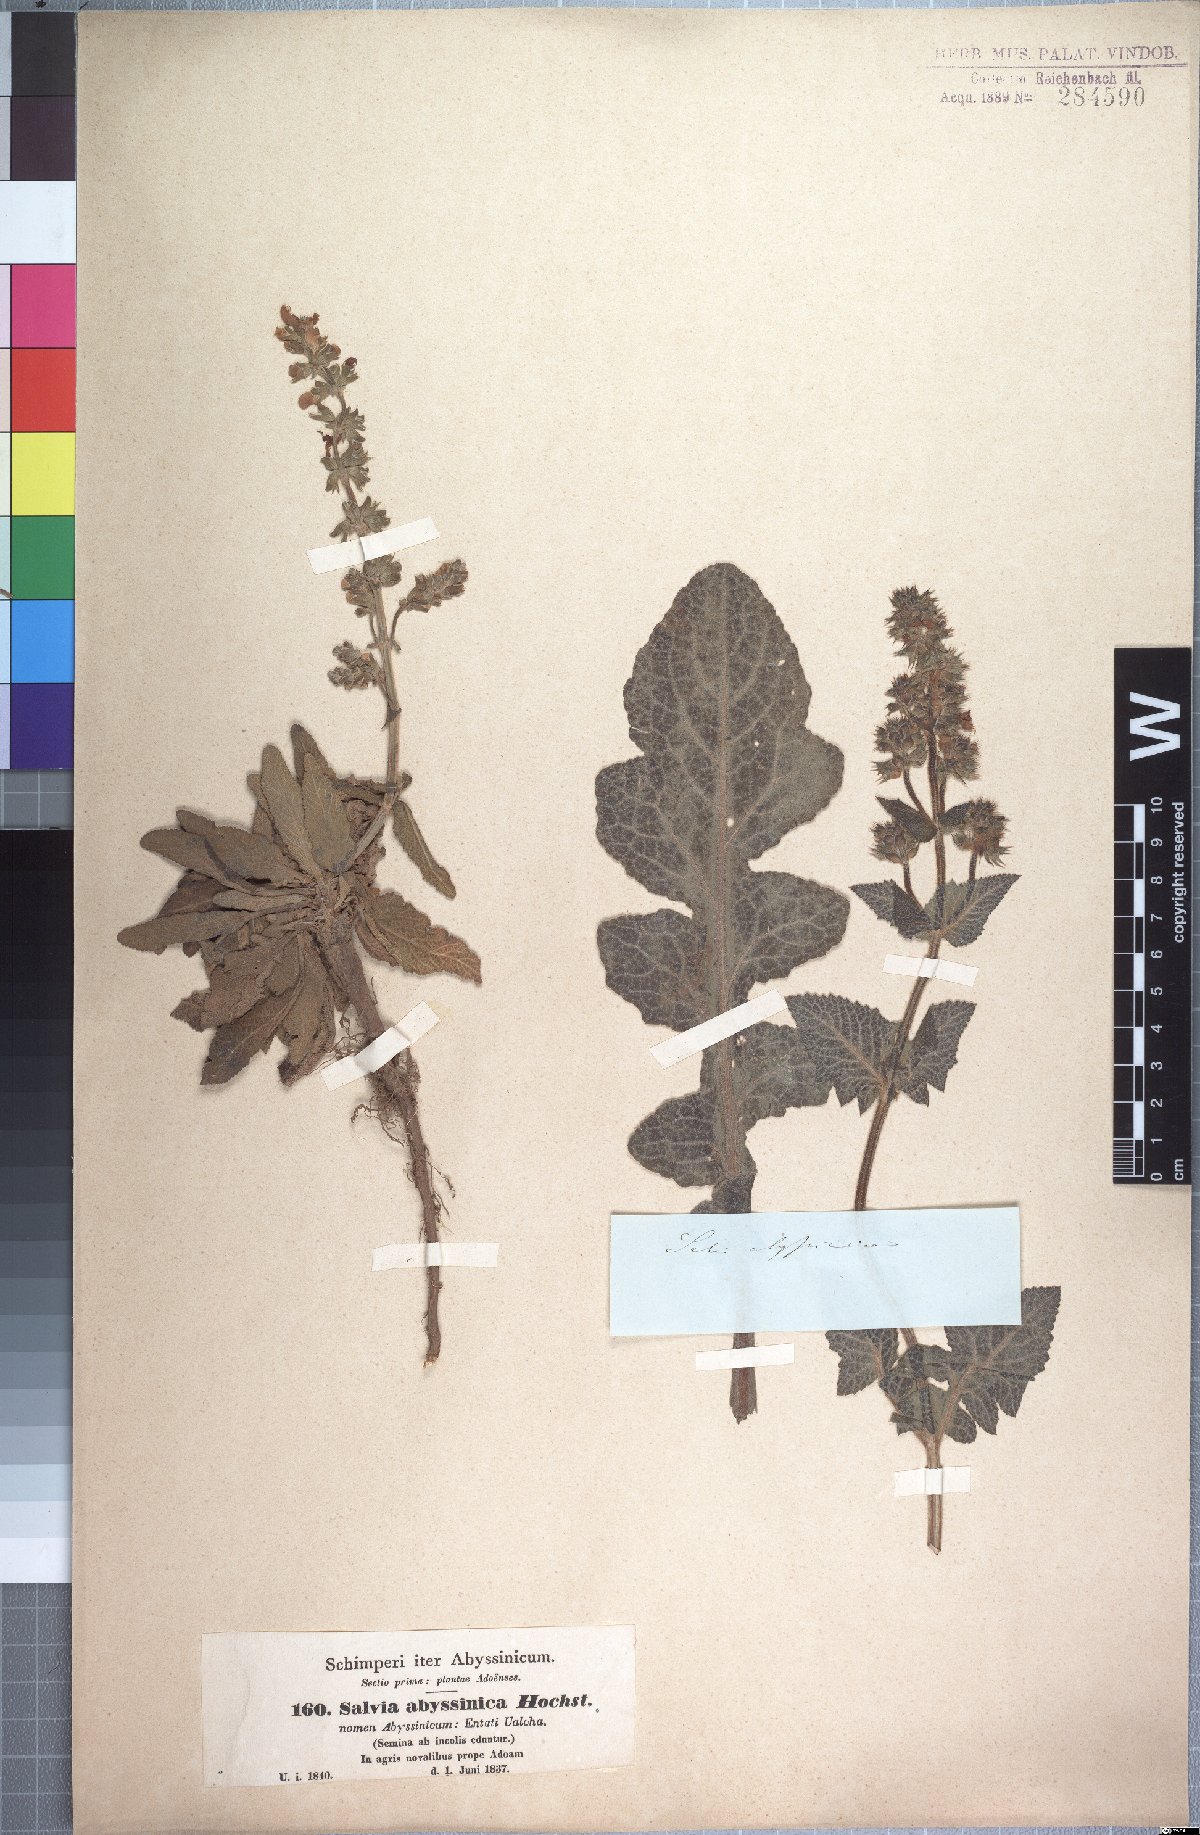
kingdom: Plantae
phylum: Tracheophyta
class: Magnoliopsida
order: Lamiales
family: Lamiaceae
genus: Salvia
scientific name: Salvia merjamie
